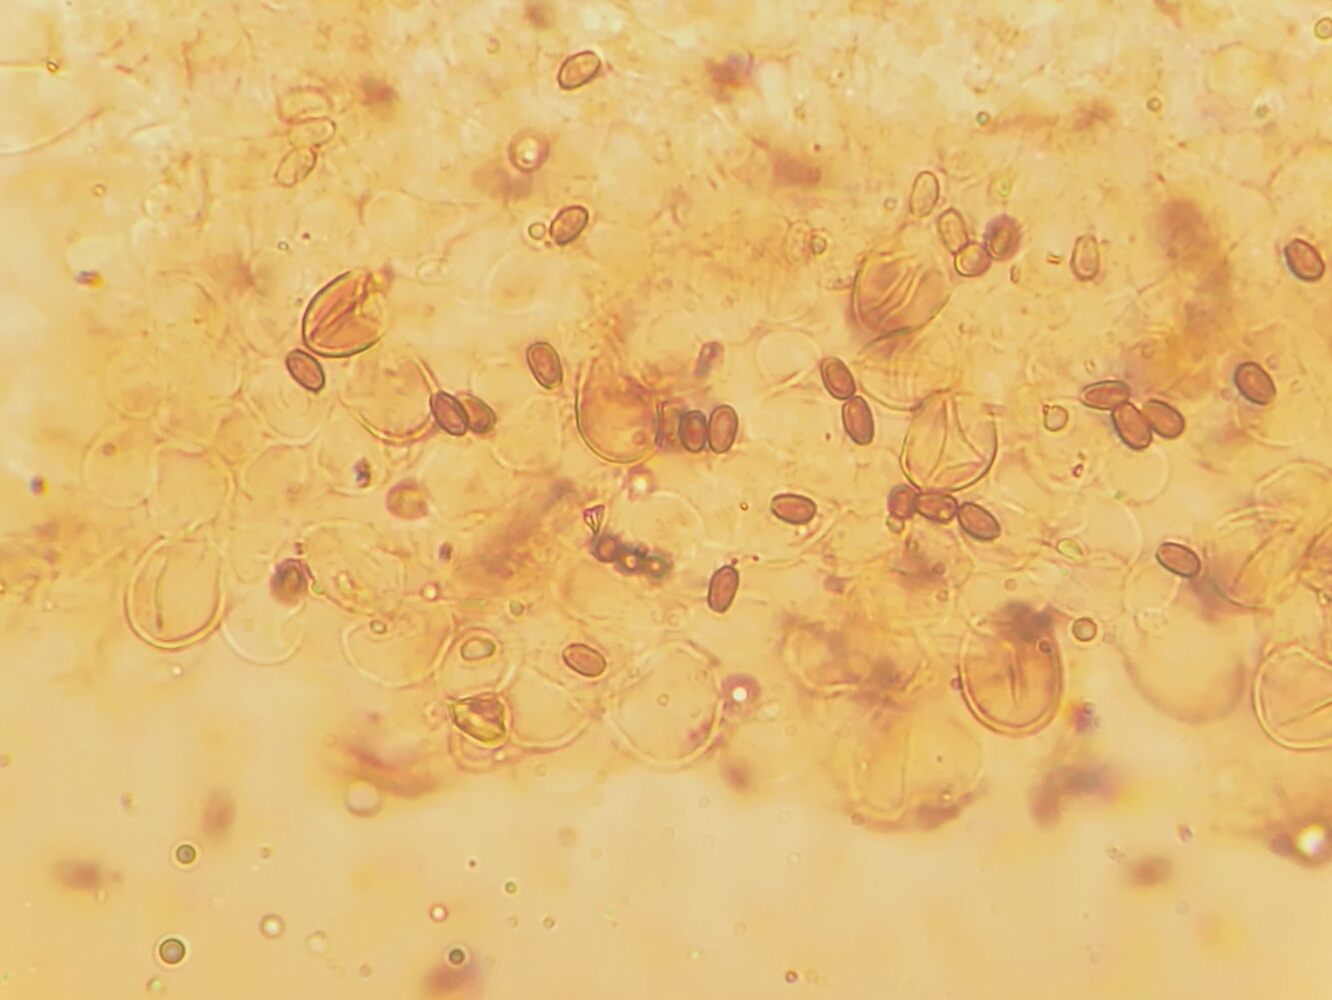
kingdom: Fungi
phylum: Basidiomycota
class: Agaricomycetes
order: Agaricales
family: Psathyrellaceae
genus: Psathyrella
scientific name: Psathyrella
